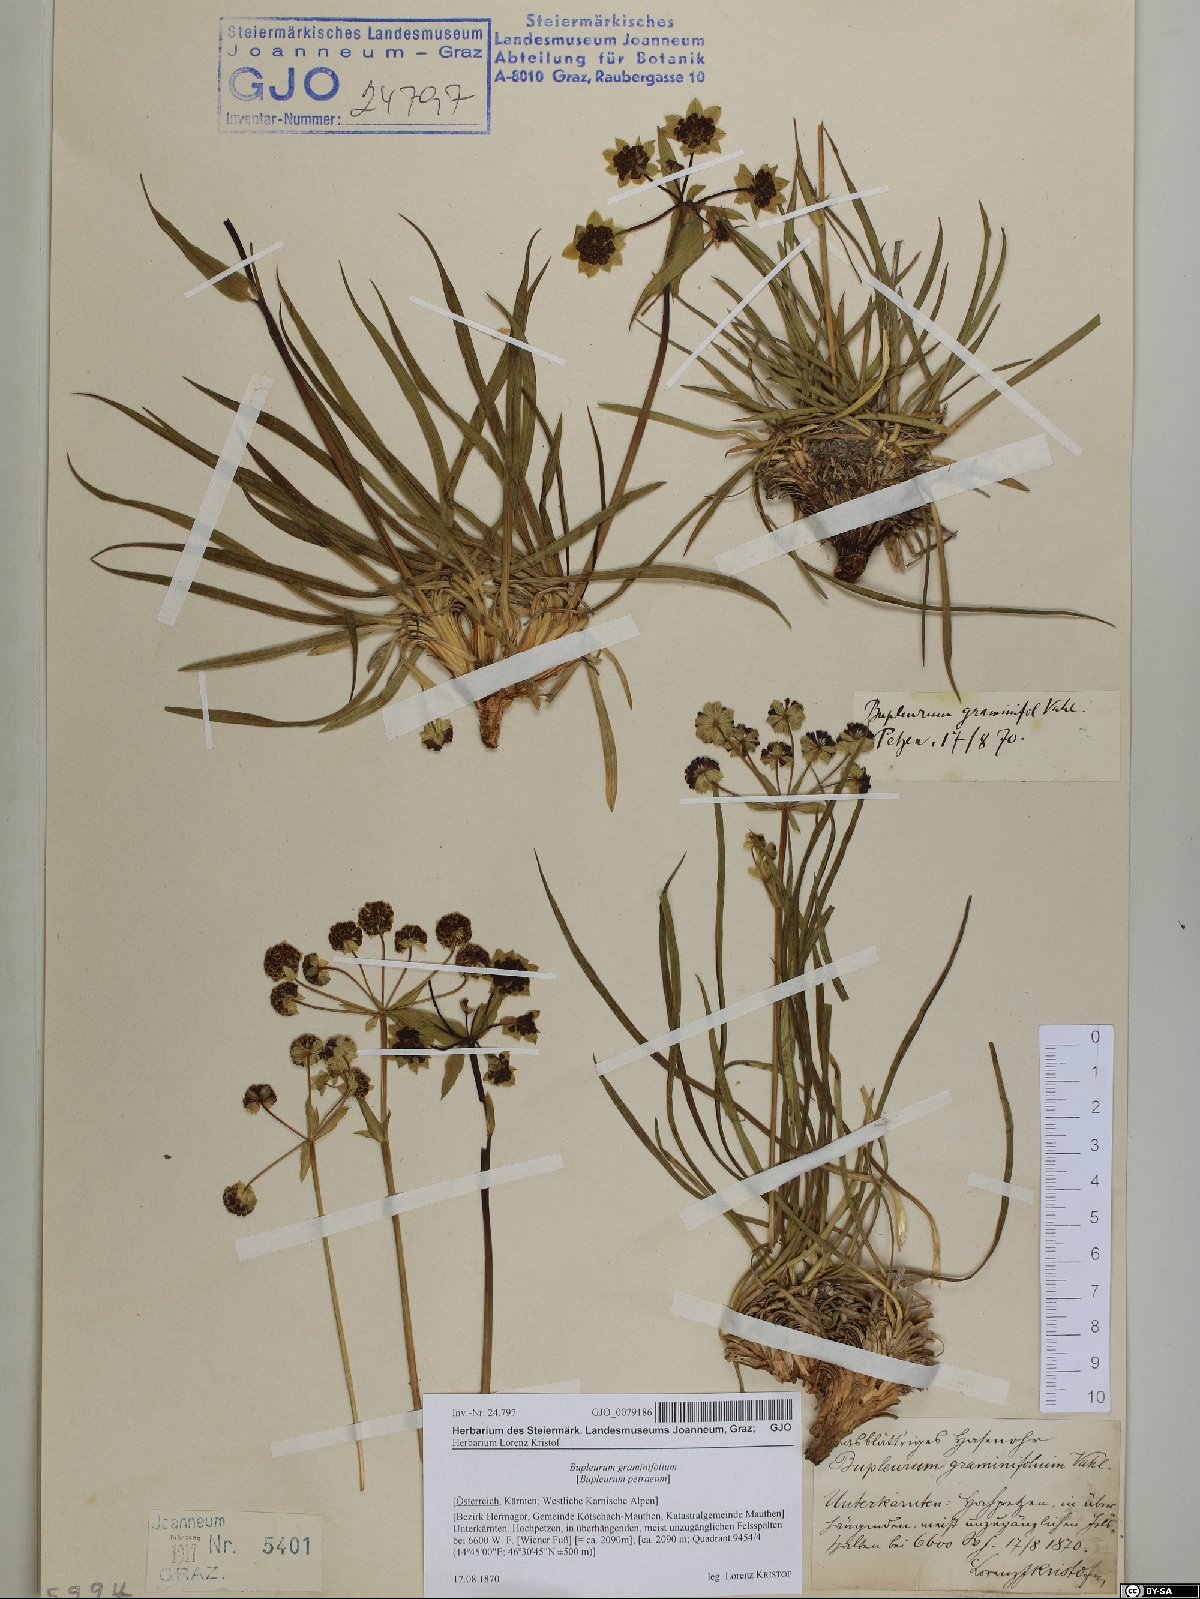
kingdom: Plantae
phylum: Tracheophyta
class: Magnoliopsida
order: Apiales
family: Apiaceae
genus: Bupleurum
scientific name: Bupleurum petraeum
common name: Rock hare's-ear
